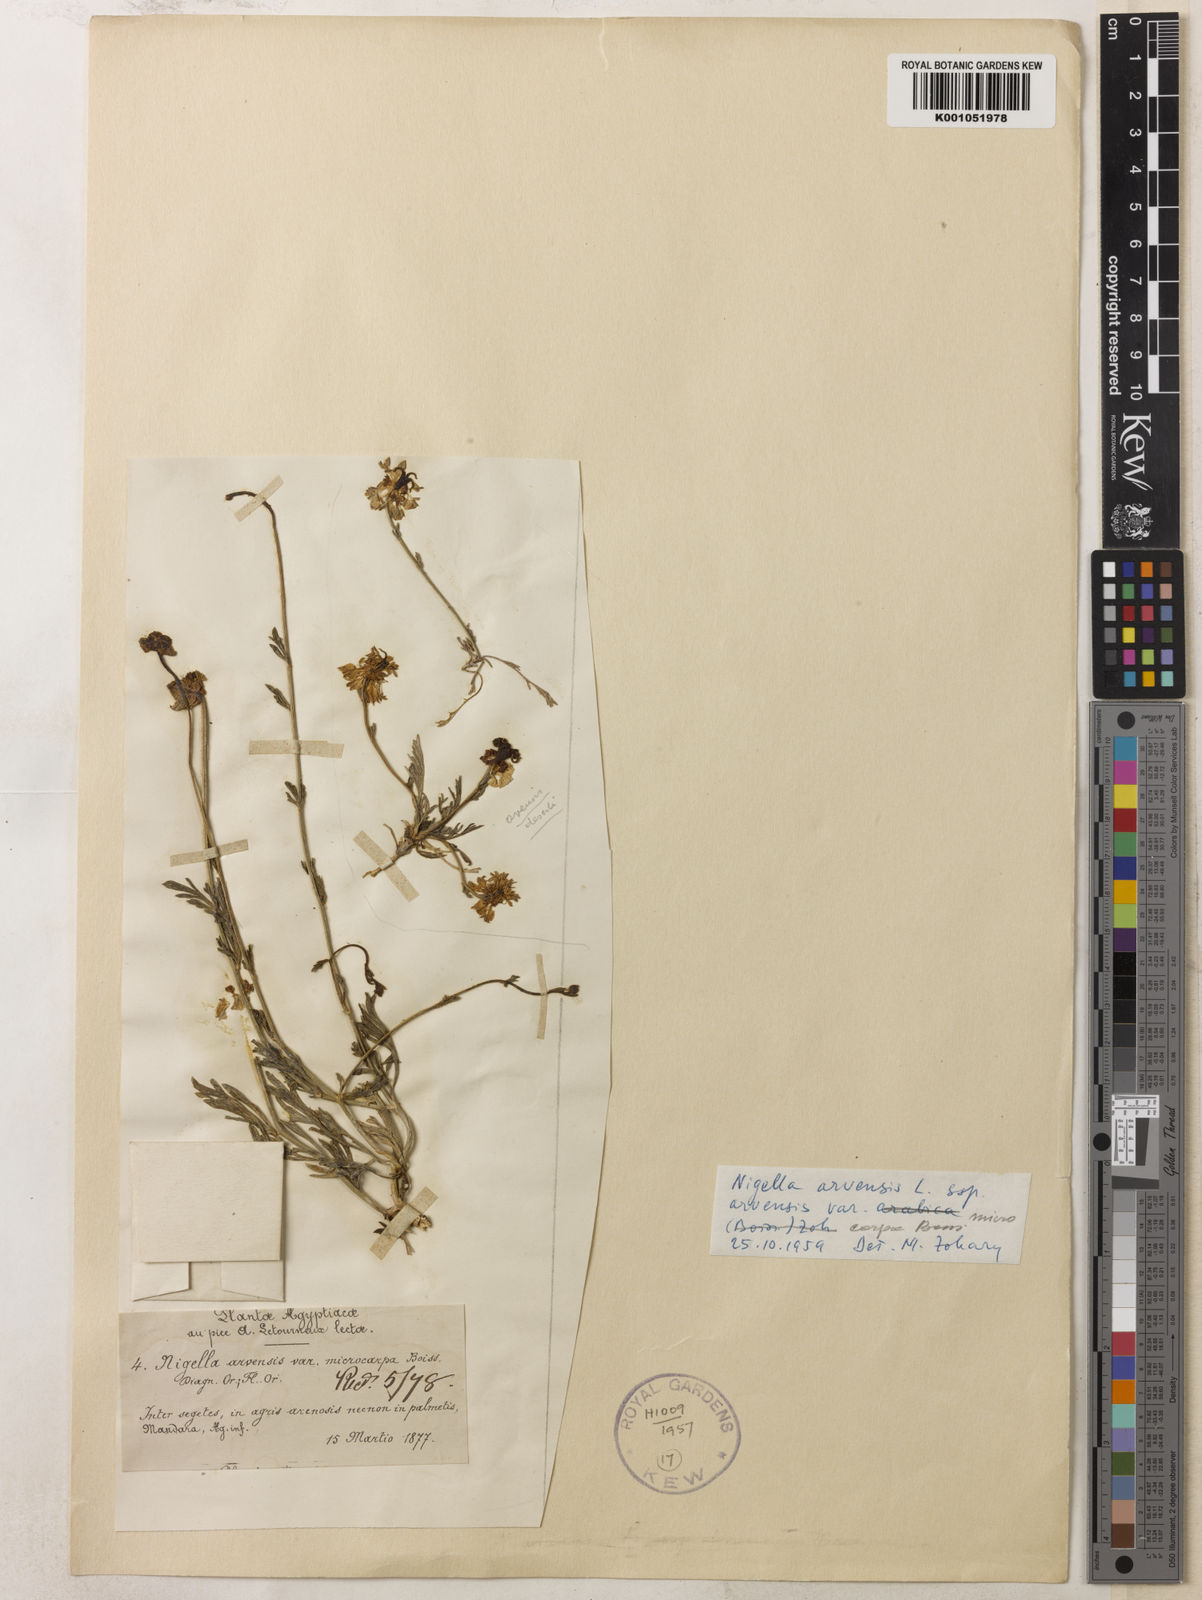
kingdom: Plantae
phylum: Tracheophyta
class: Magnoliopsida
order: Ranunculales
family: Ranunculaceae
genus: Nigella
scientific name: Nigella arvensis
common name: Wild fennel-flower
